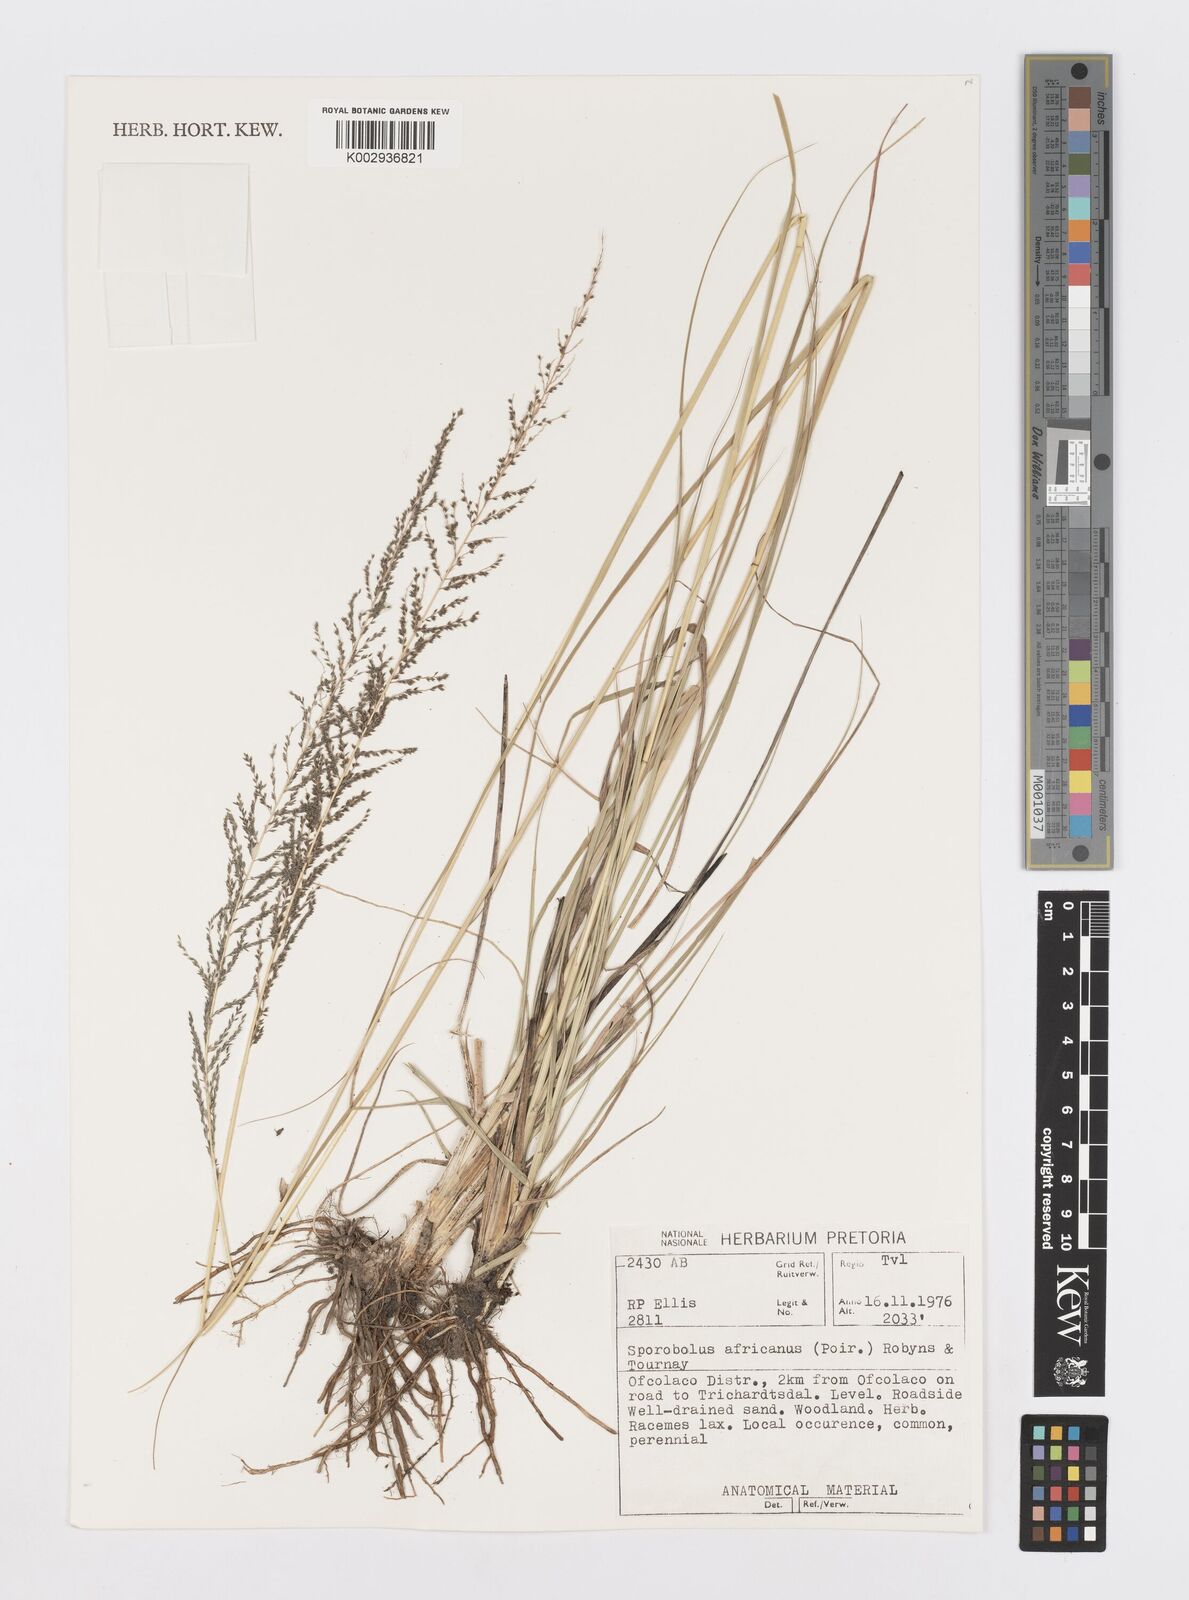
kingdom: Plantae
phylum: Tracheophyta
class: Liliopsida
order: Poales
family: Poaceae
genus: Sporobolus
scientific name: Sporobolus africanus
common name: African dropseed
